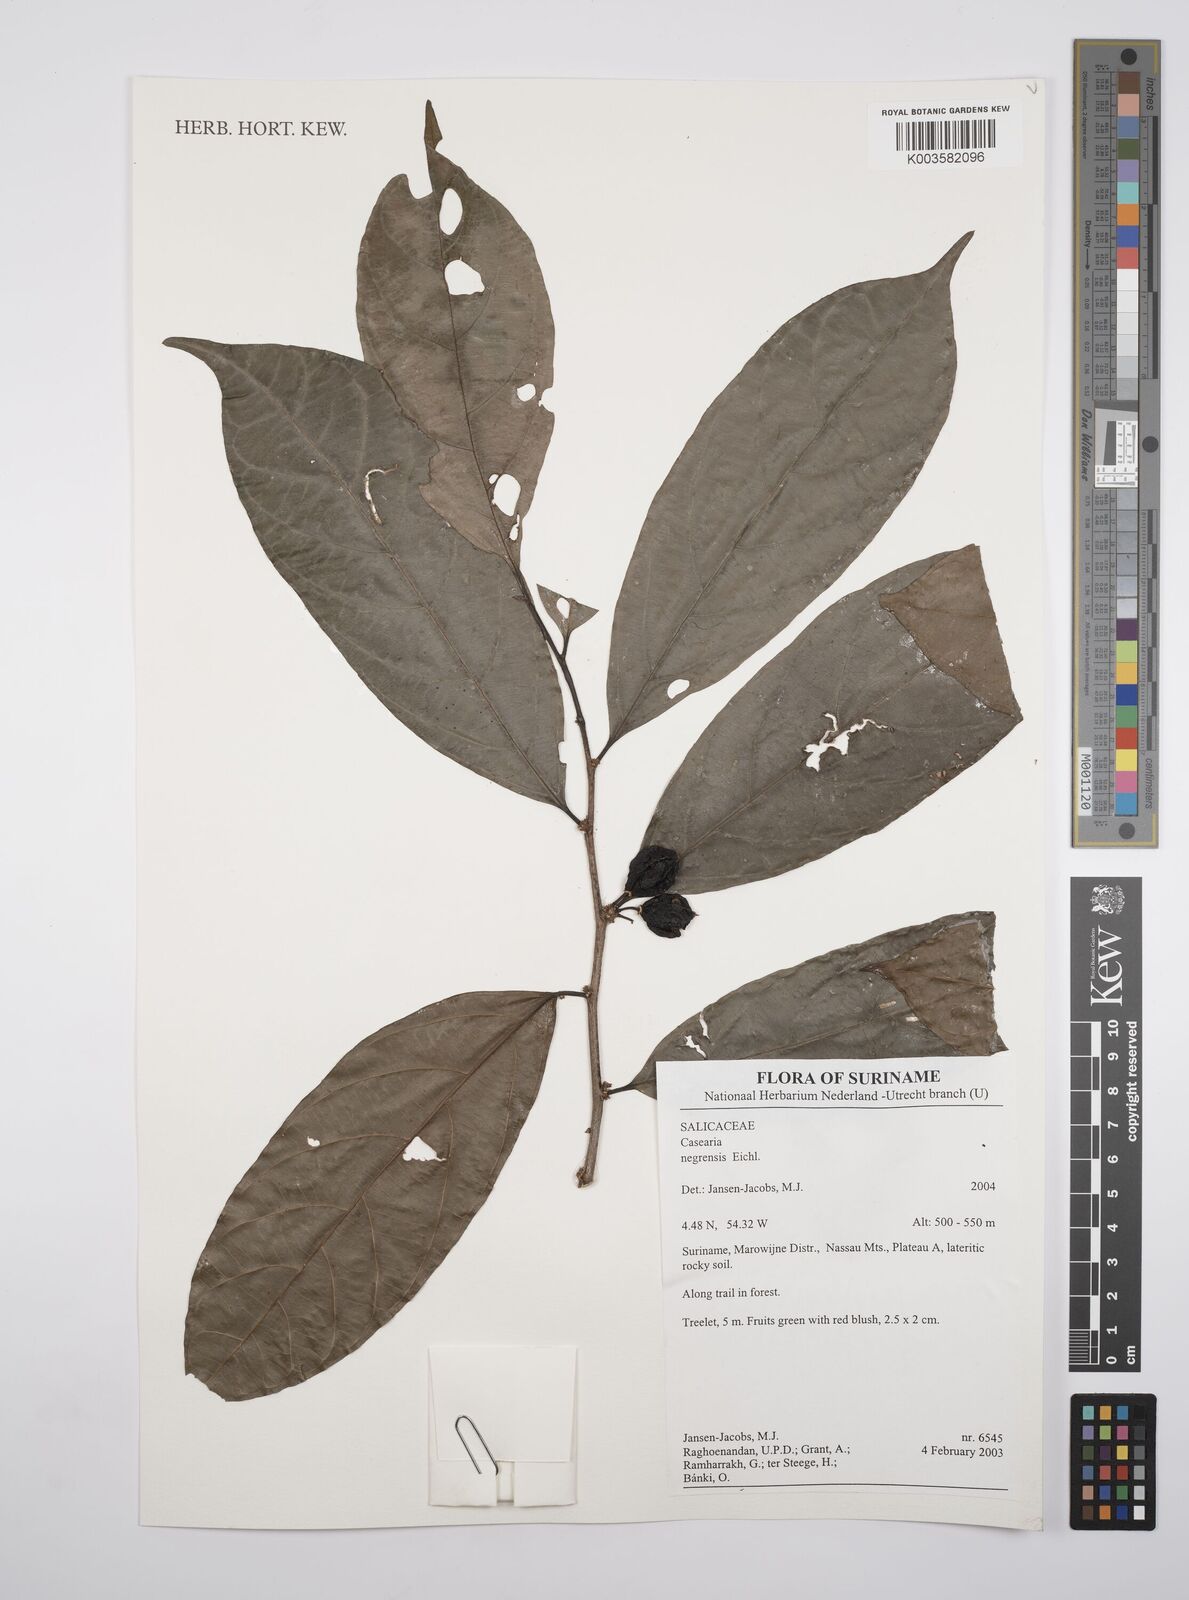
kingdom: Plantae
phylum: Tracheophyta
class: Magnoliopsida
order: Malpighiales
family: Salicaceae
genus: Casearia
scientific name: Casearia negrensis
